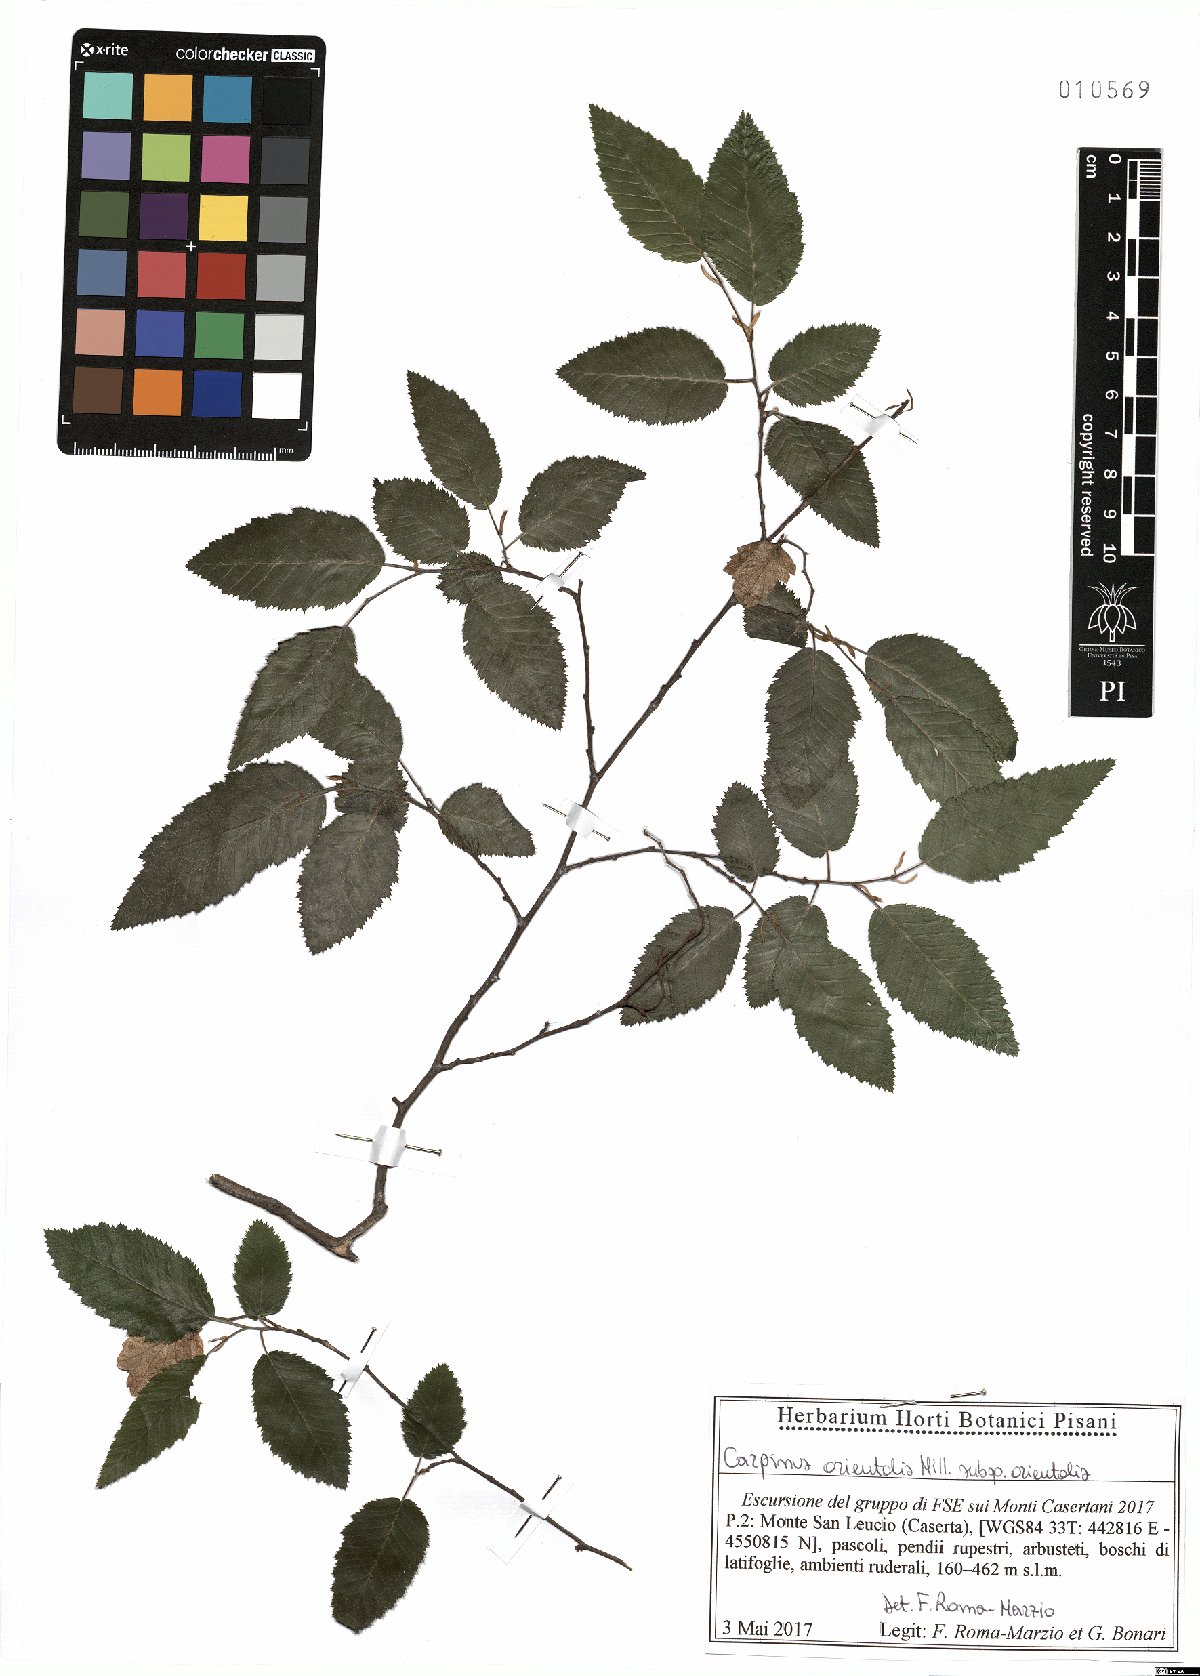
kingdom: Plantae
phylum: Tracheophyta
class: Magnoliopsida
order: Fagales
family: Betulaceae
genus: Carpinus
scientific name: Carpinus orientalis
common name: Eastern hornbeam
